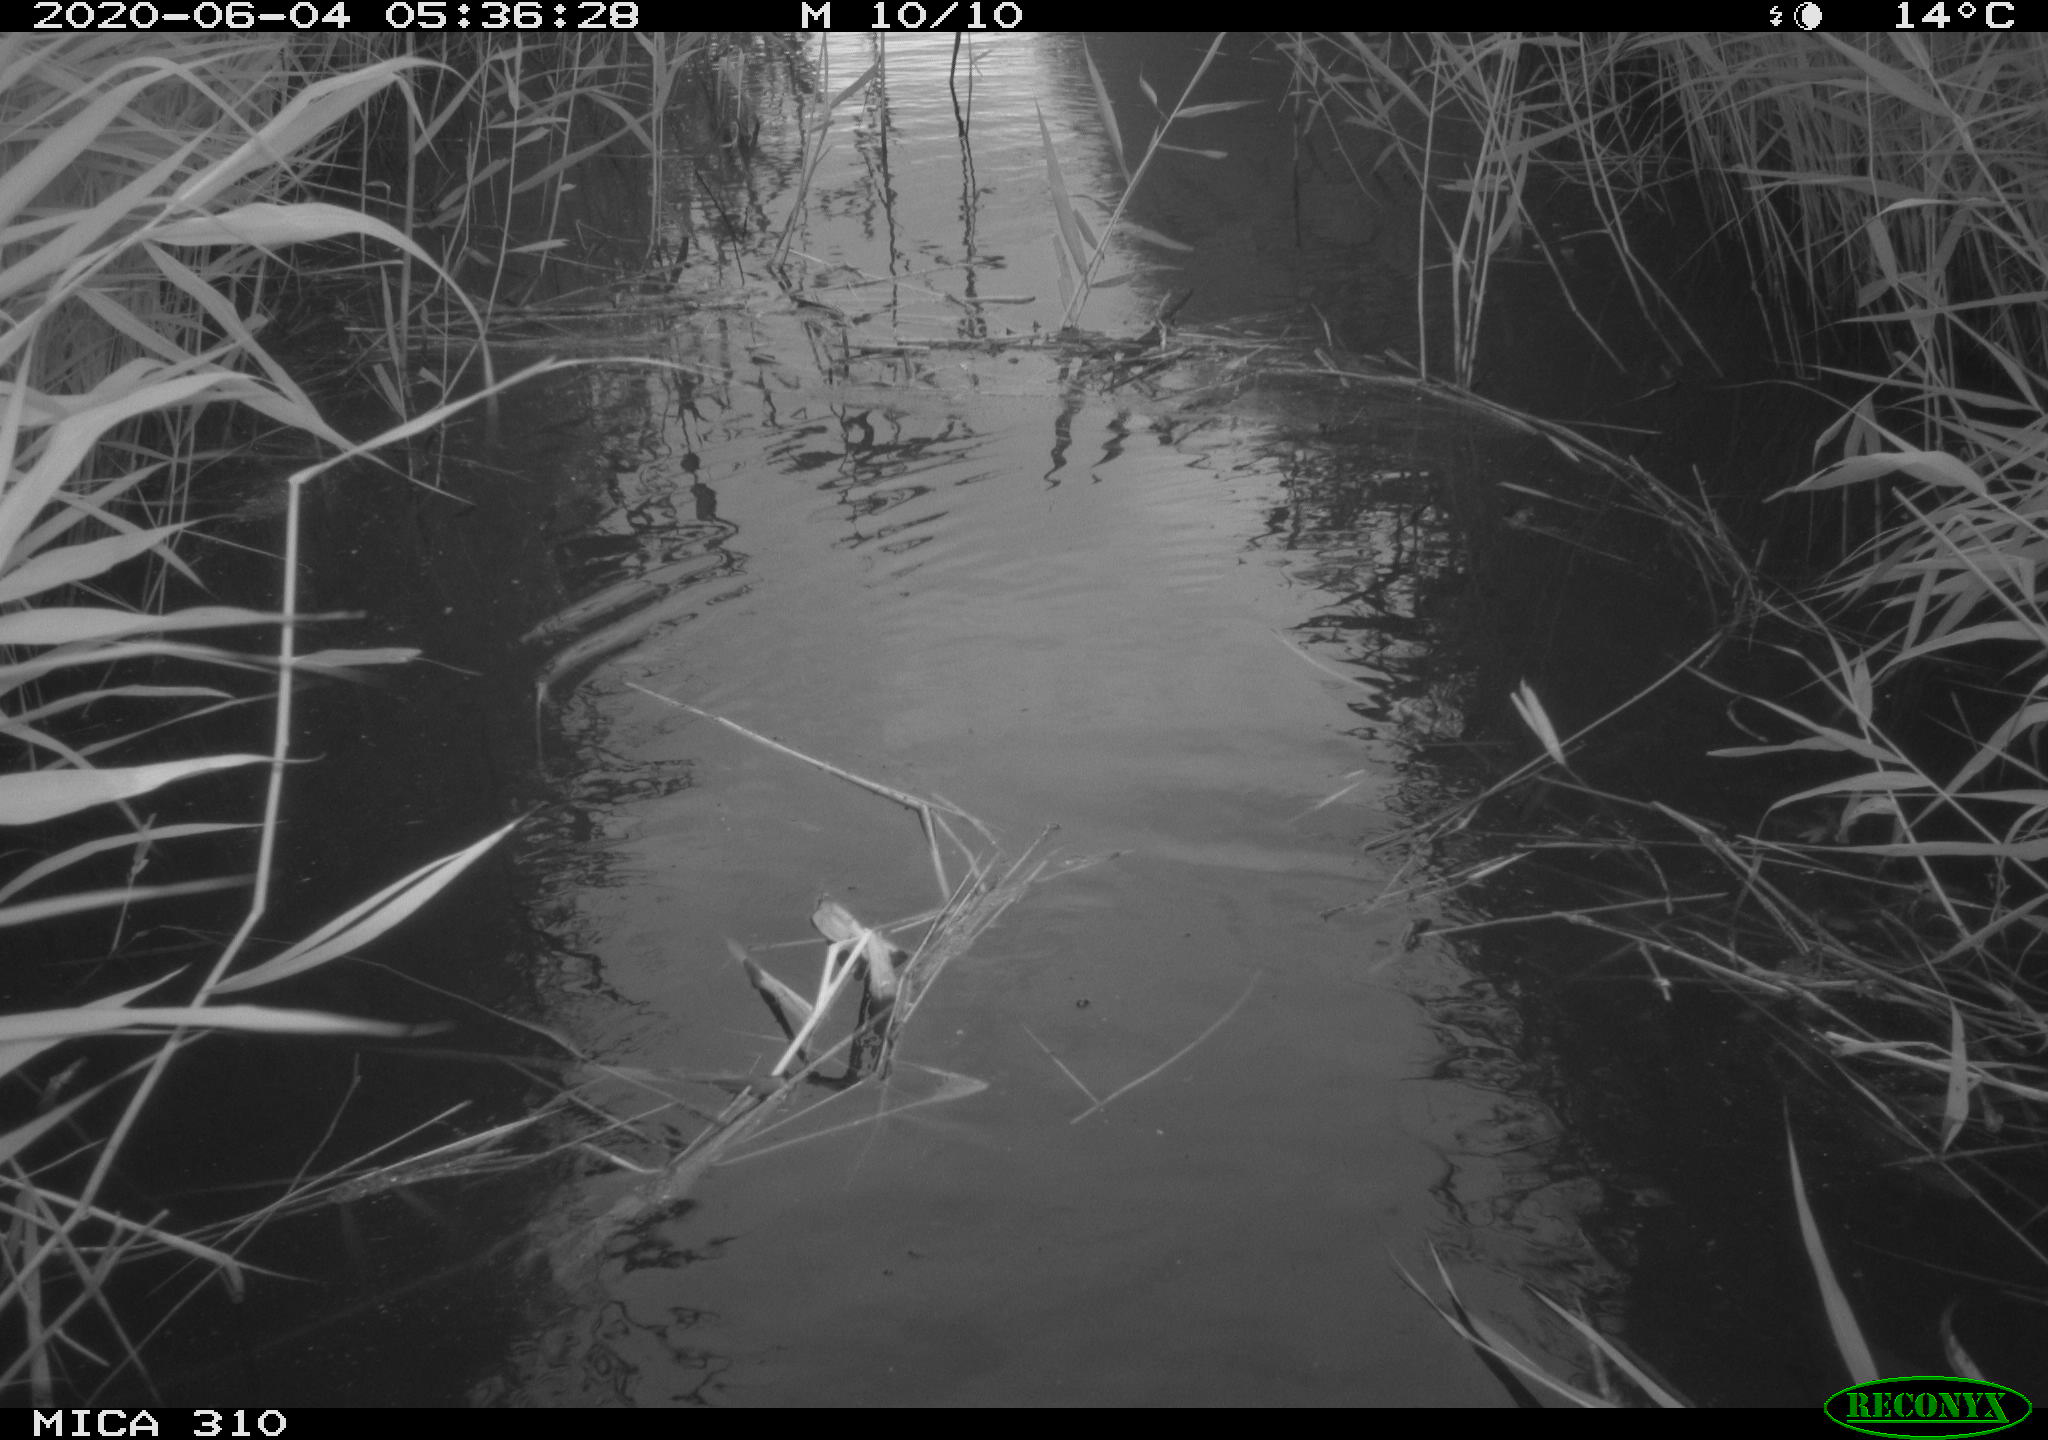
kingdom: Animalia
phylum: Chordata
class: Aves
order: Anseriformes
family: Anatidae
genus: Anas
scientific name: Anas platyrhynchos
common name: Mallard
